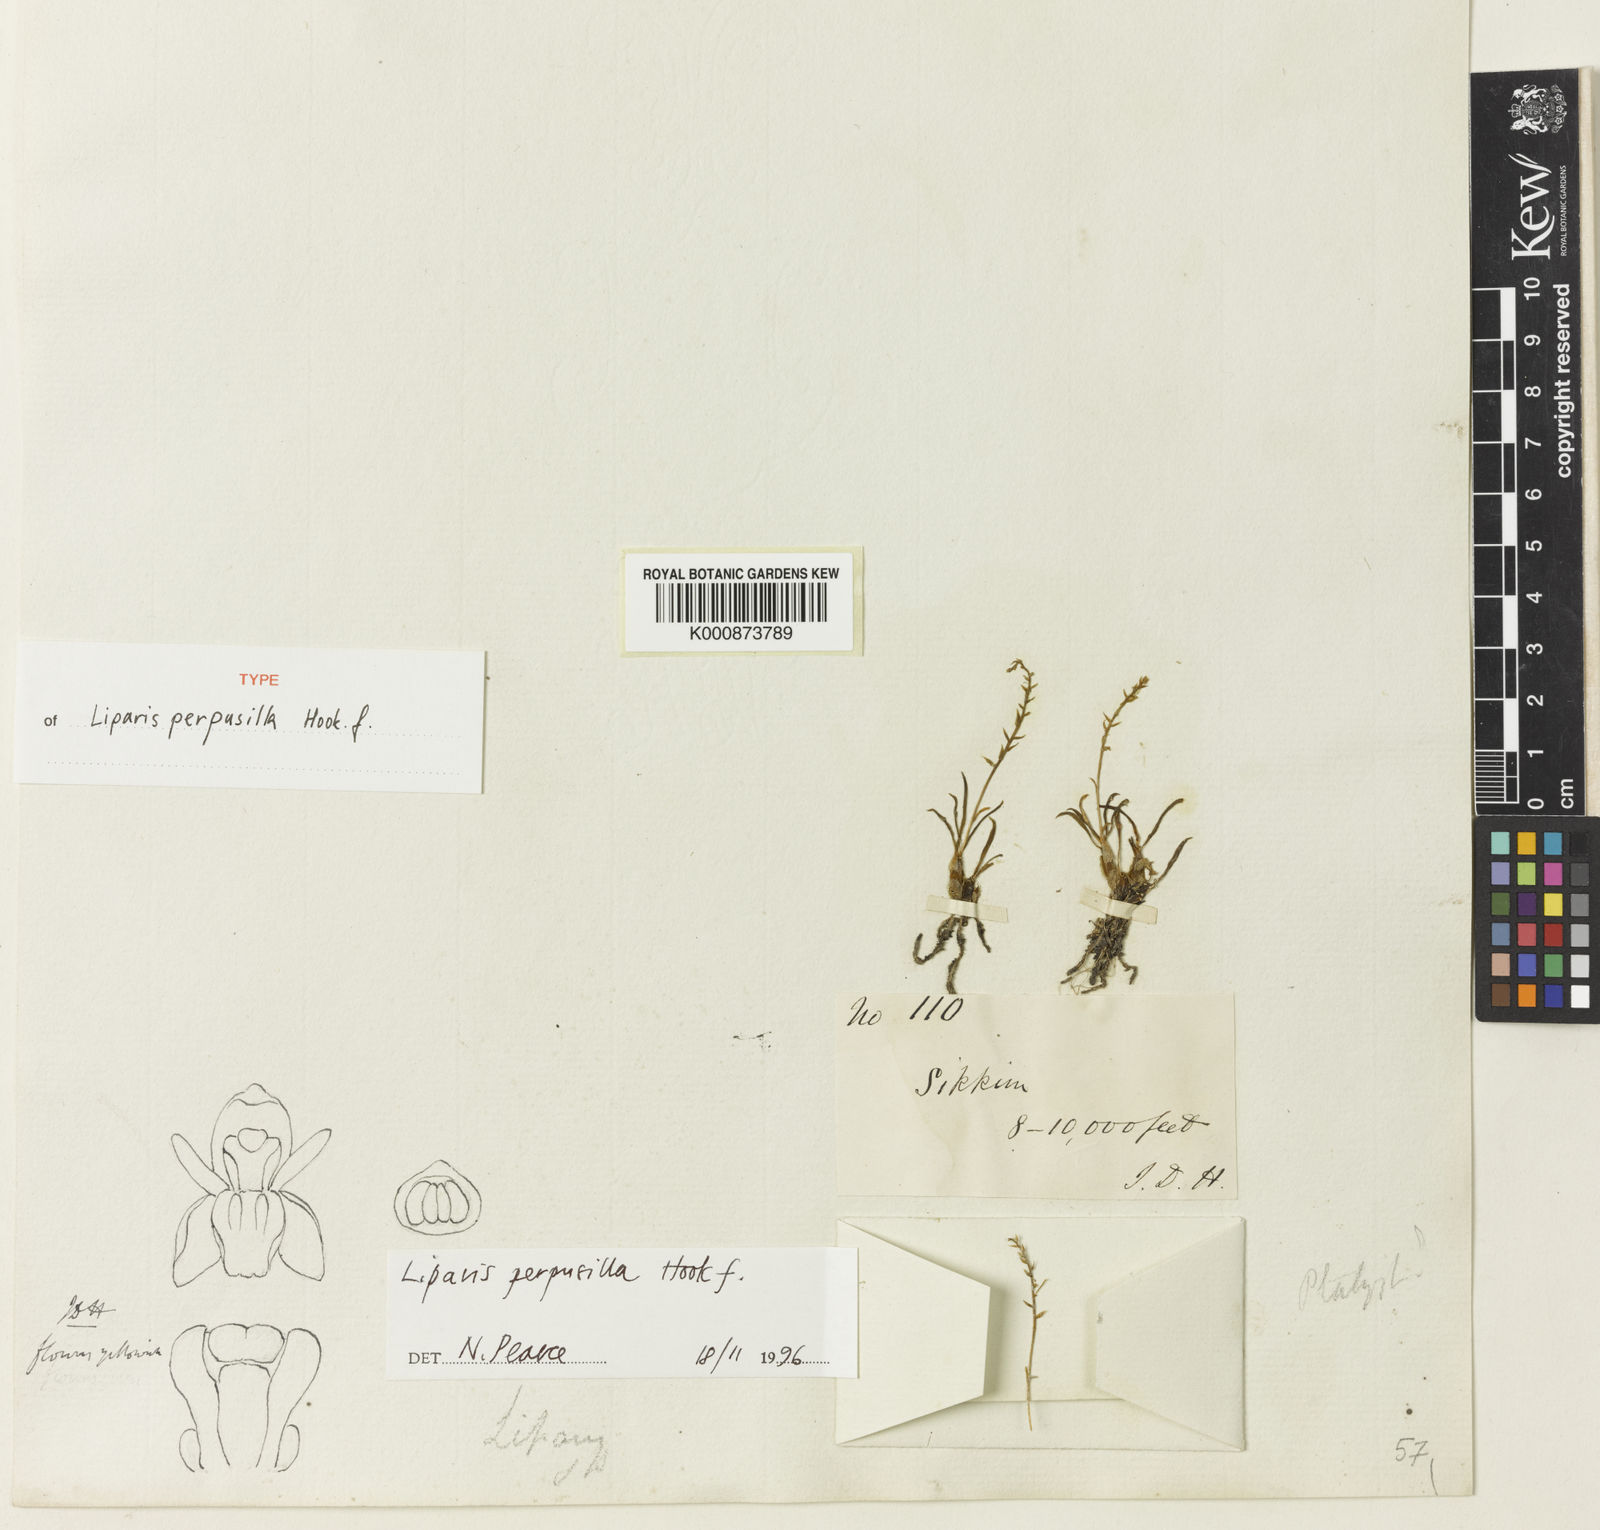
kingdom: Plantae
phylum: Tracheophyta
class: Liliopsida
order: Asparagales
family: Orchidaceae
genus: Liparis
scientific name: Liparis perpusilla
